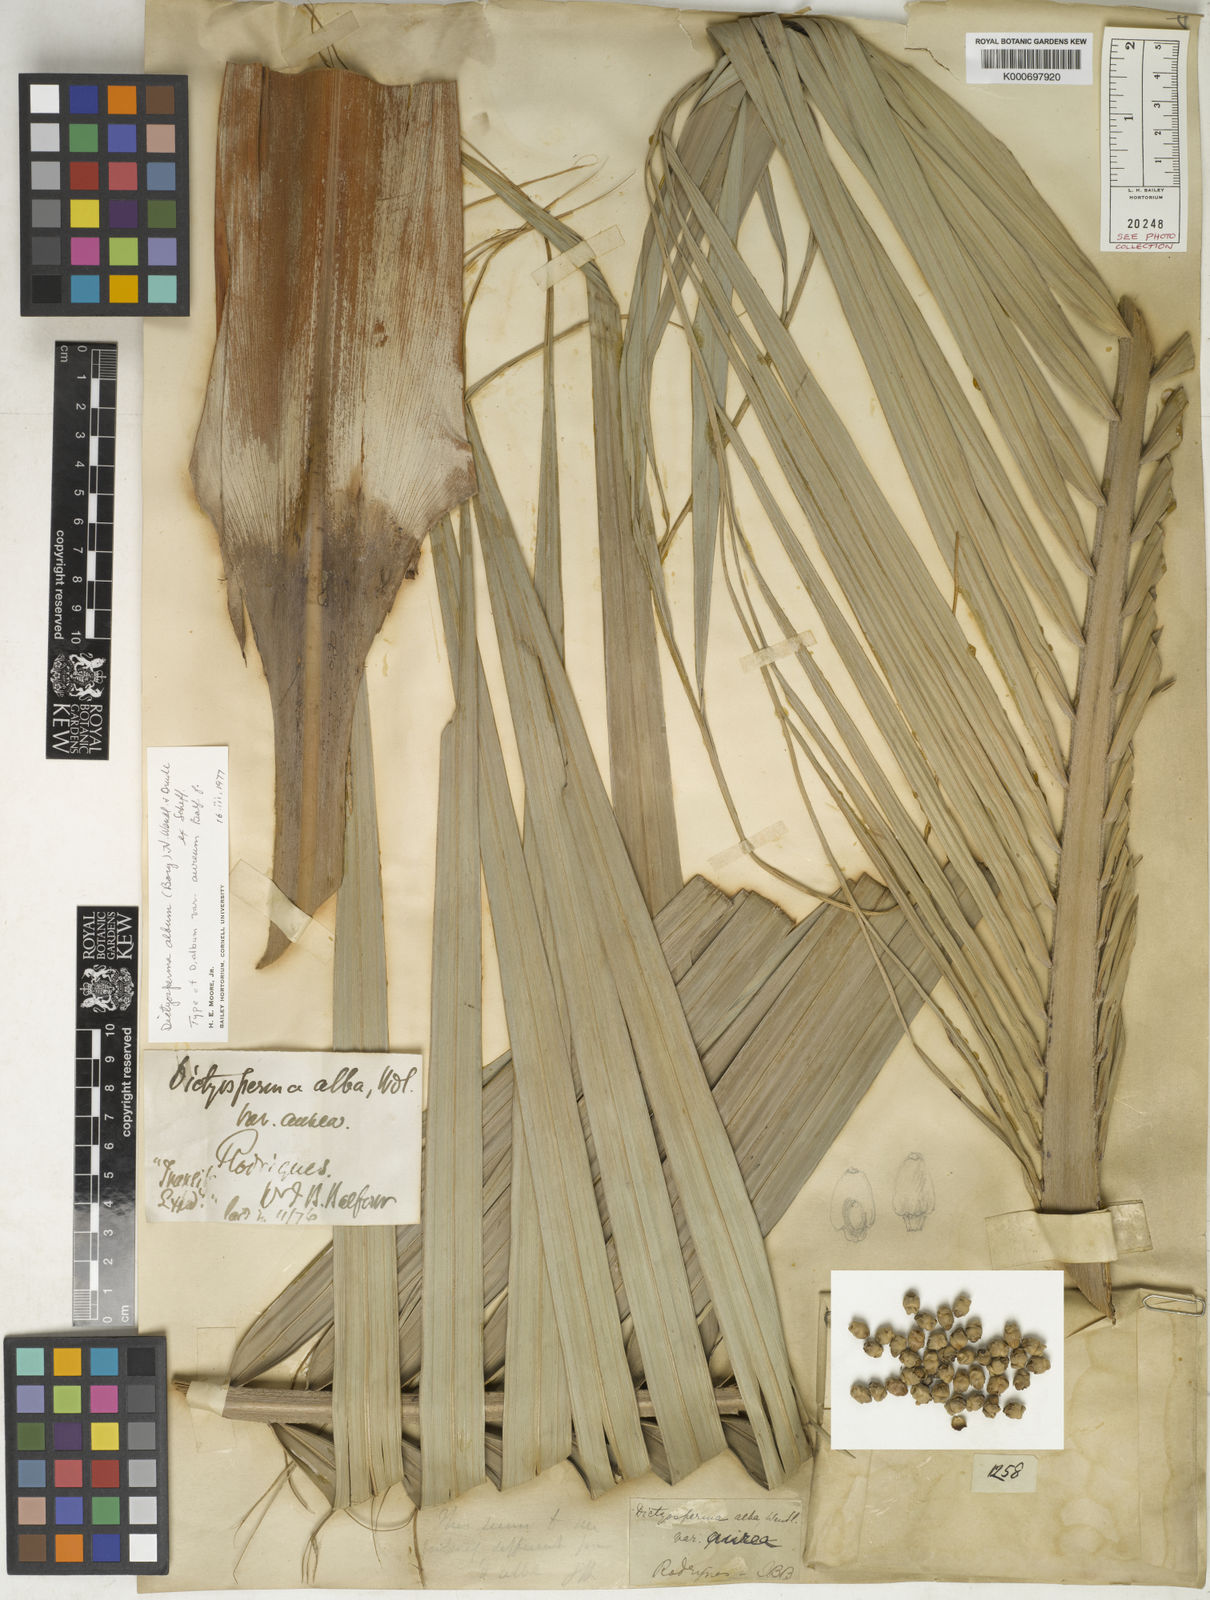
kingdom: Plantae
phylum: Tracheophyta
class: Liliopsida
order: Arecales
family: Arecaceae
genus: Dictyosperma
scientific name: Dictyosperma album
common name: Common princess palm
